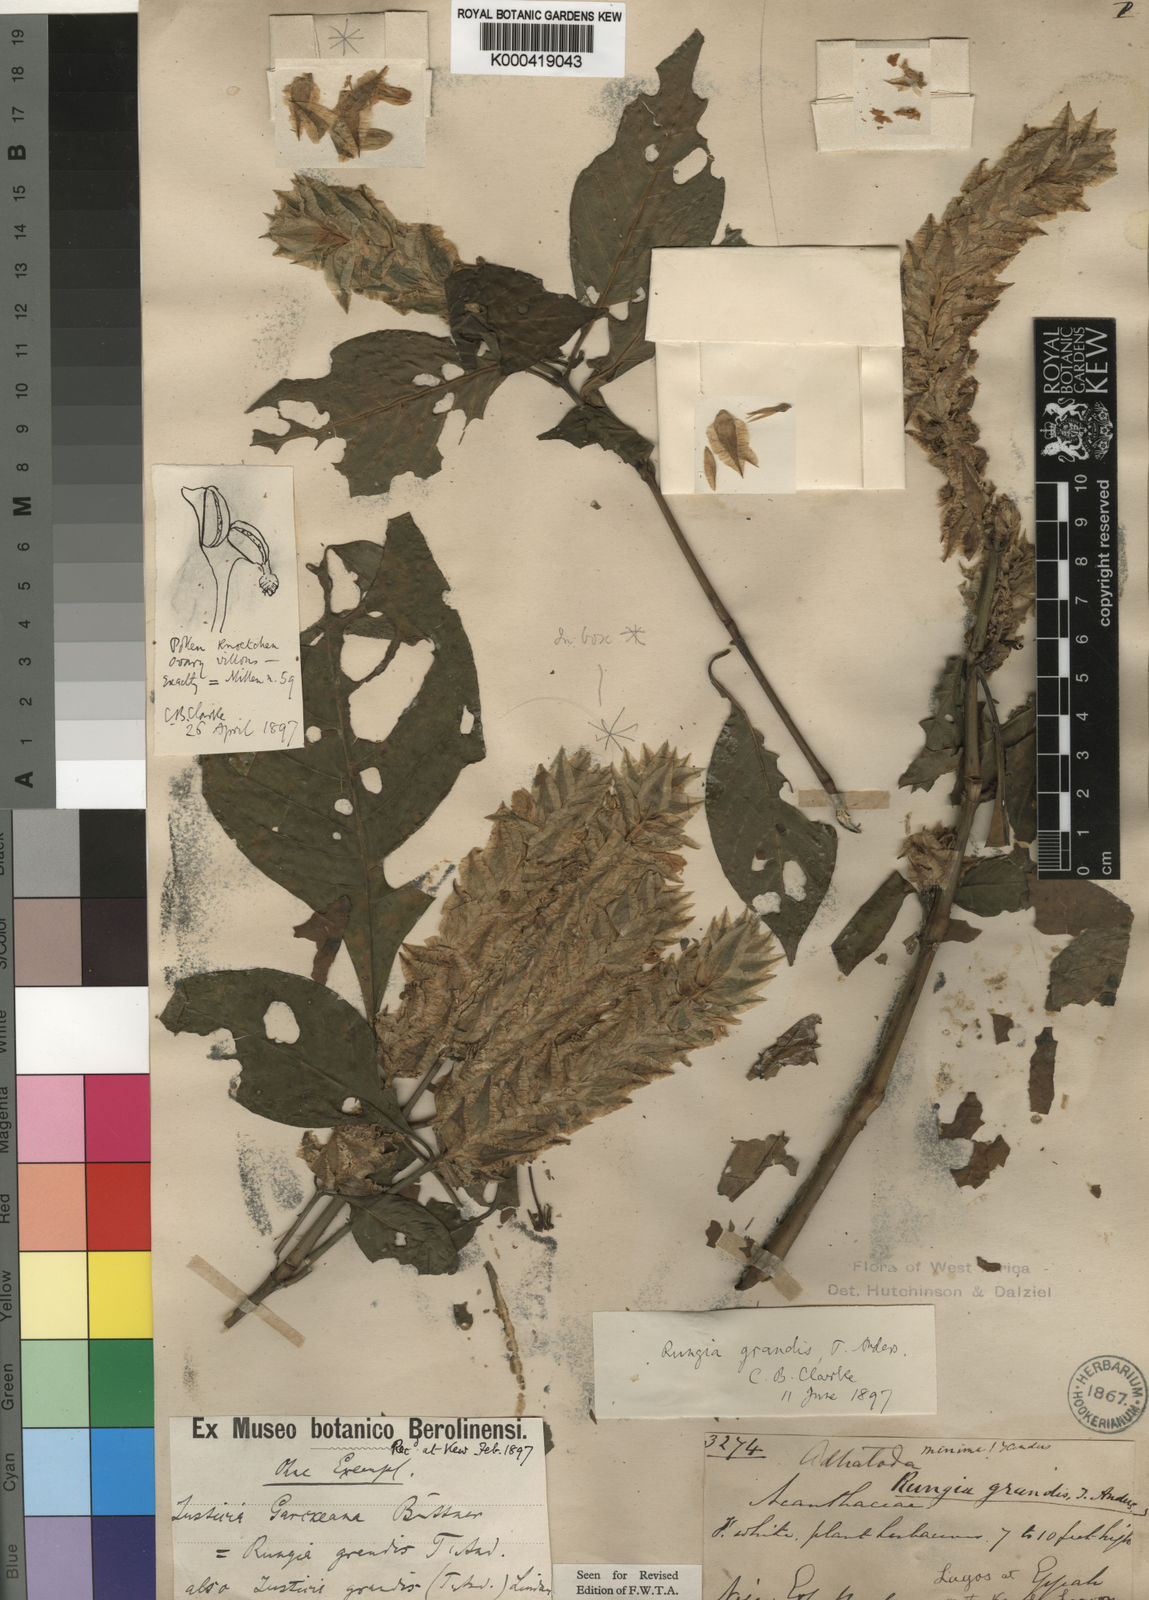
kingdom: Plantae
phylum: Tracheophyta
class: Magnoliopsida
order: Lamiales
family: Acanthaceae
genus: Justicia
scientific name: Justicia
